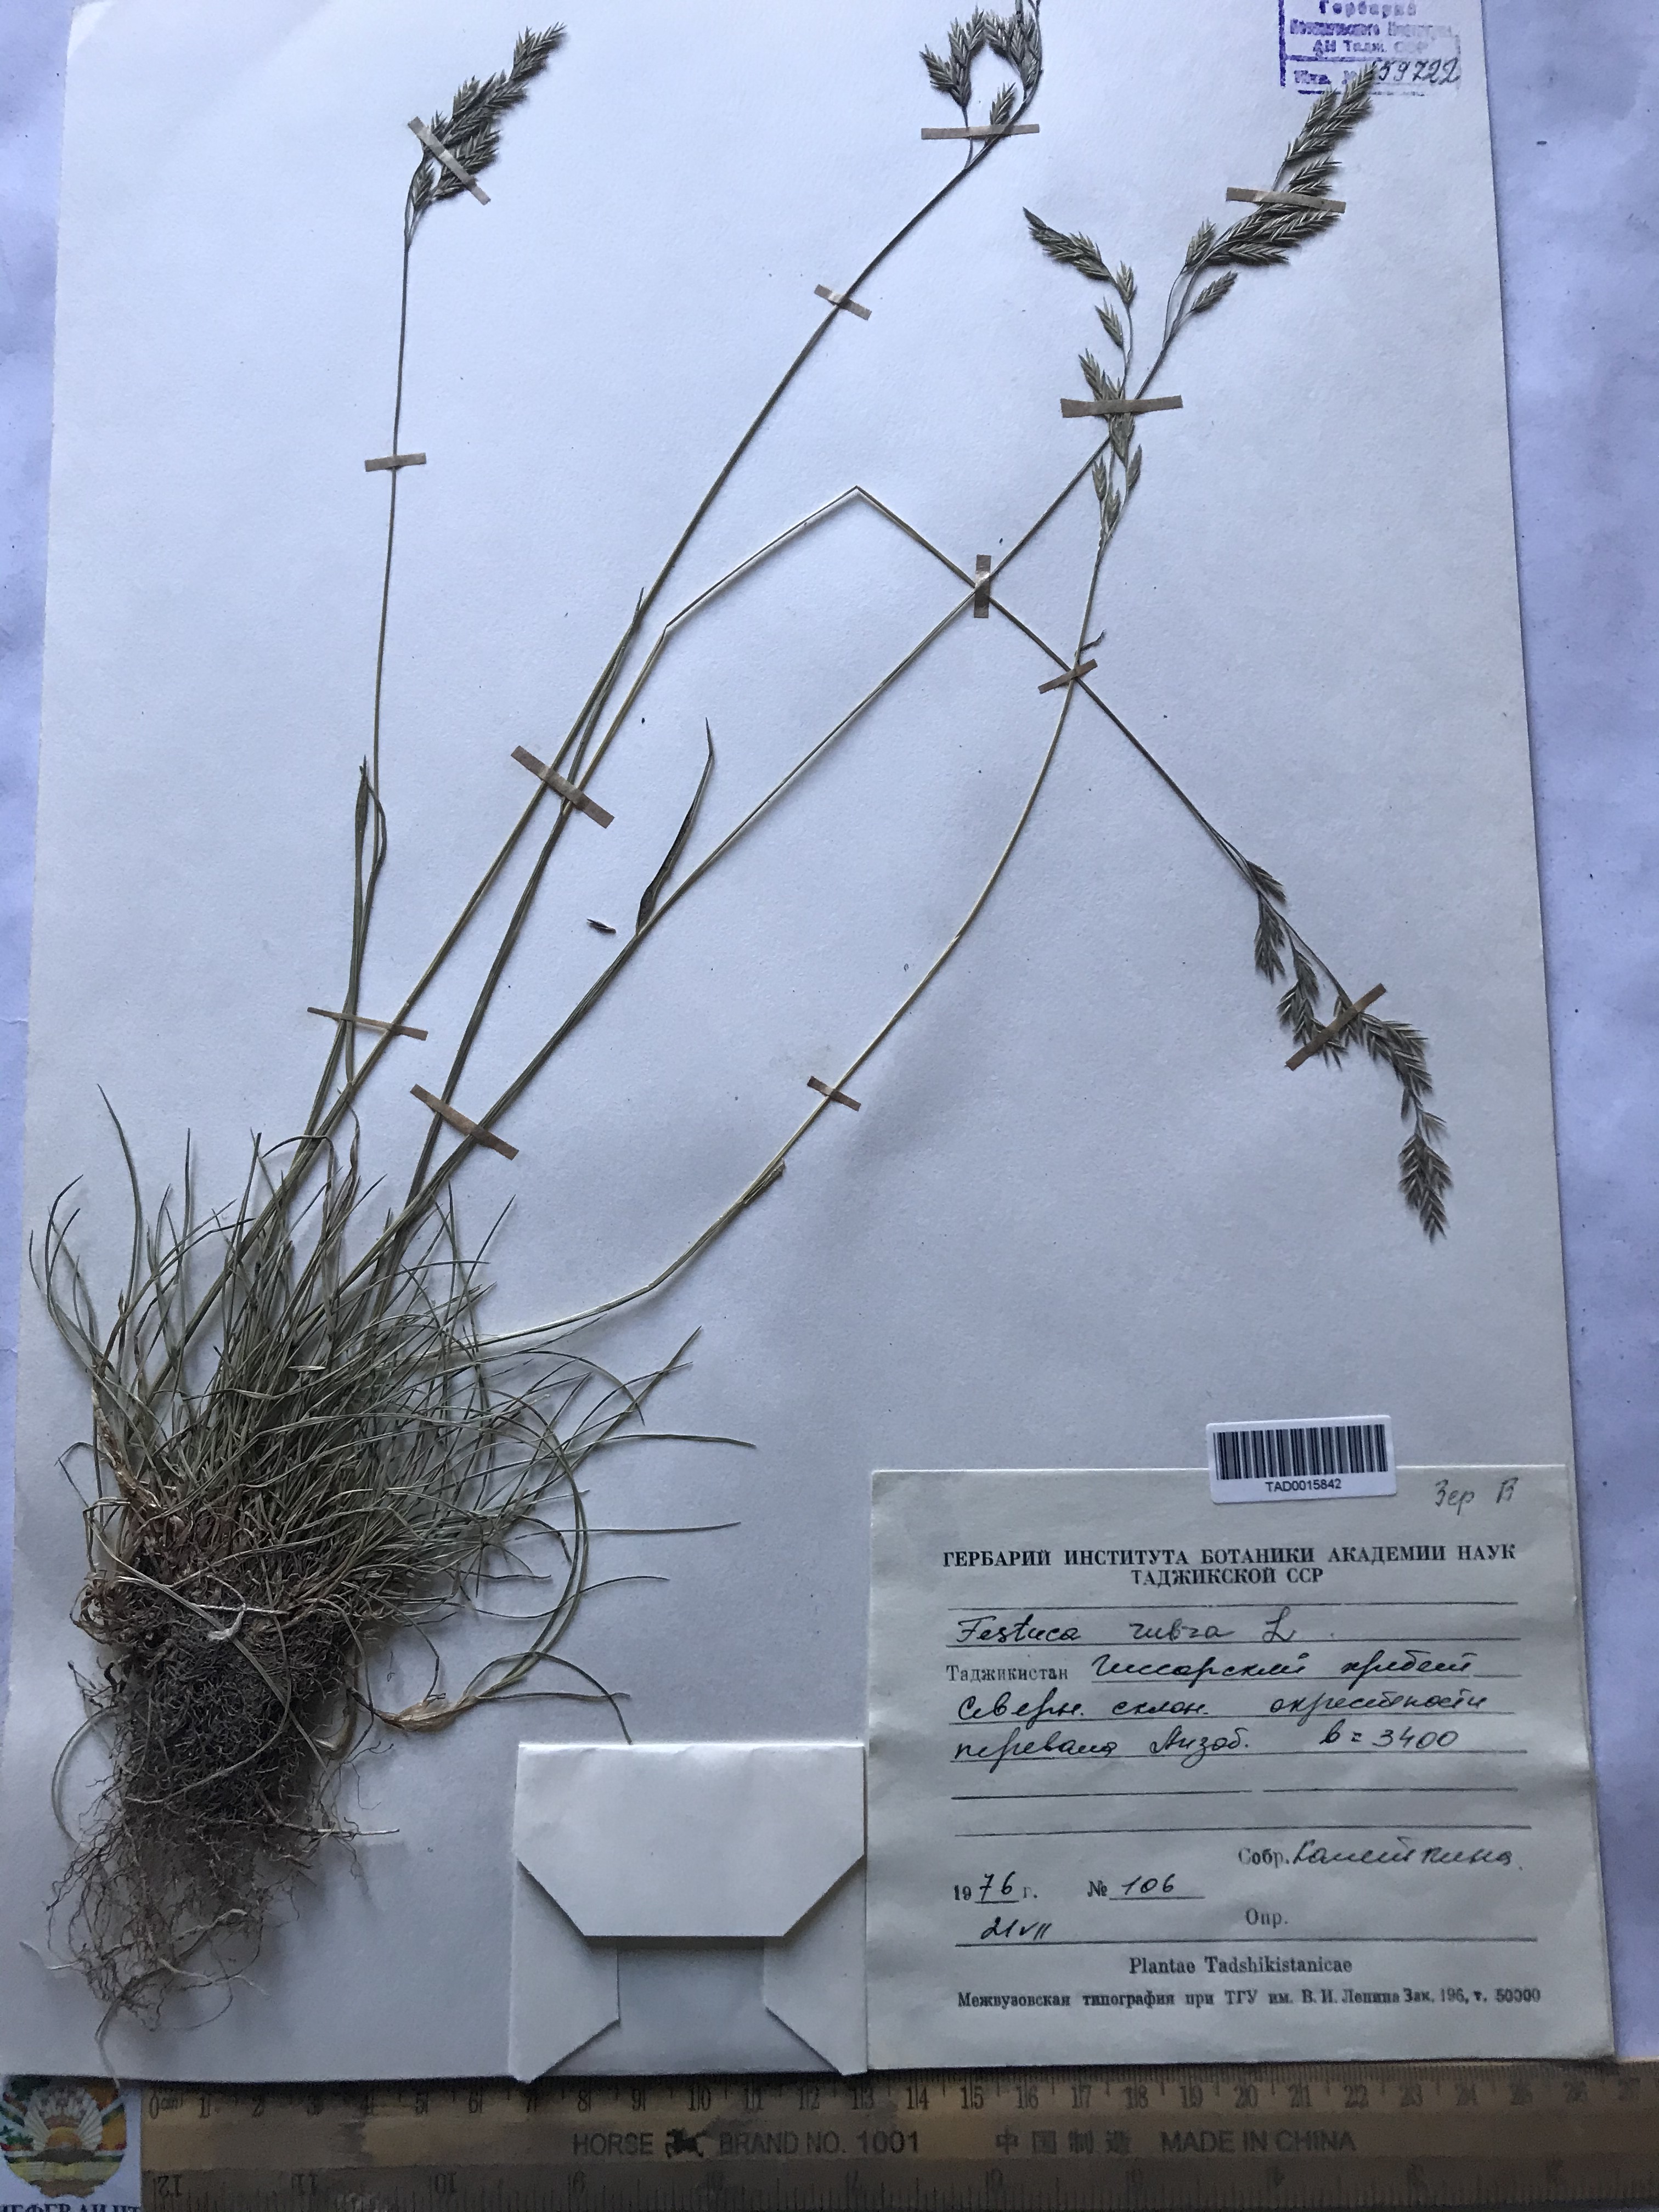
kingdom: Plantae
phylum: Tracheophyta
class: Liliopsida
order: Poales
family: Poaceae
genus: Festuca
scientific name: Festuca rubra
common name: Red fescue
